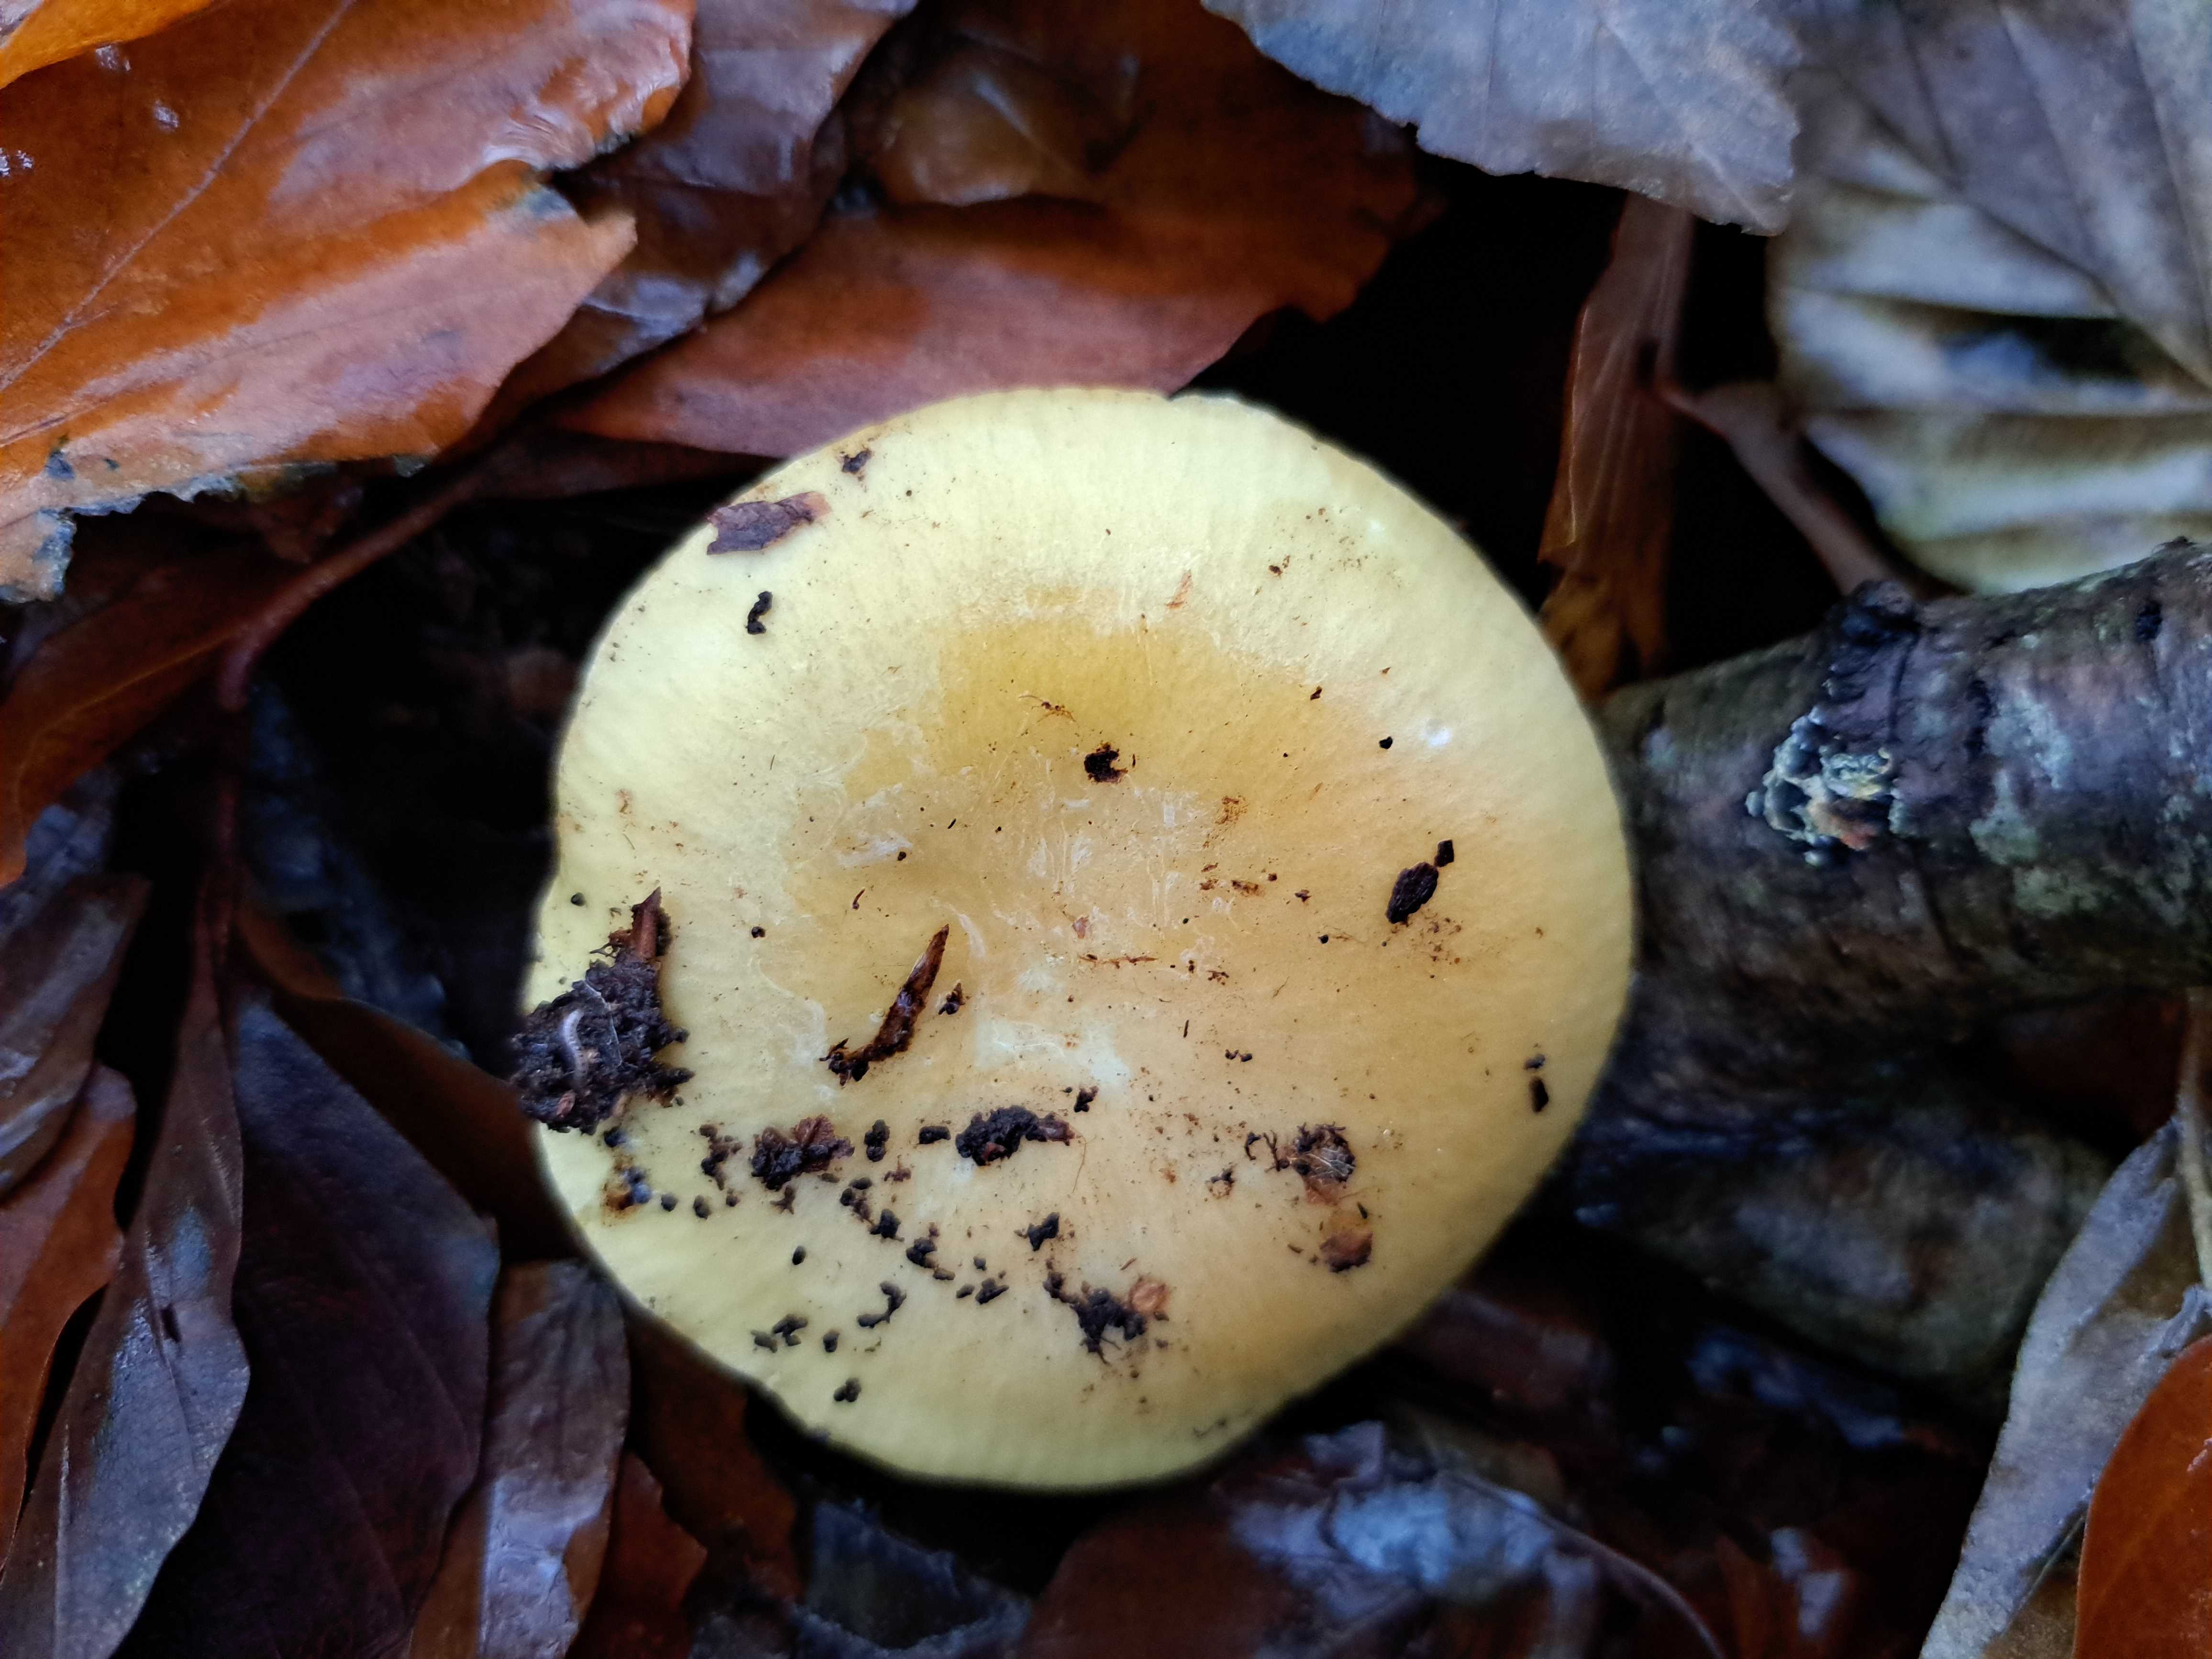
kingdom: Fungi
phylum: Basidiomycota
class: Agaricomycetes
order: Russulales
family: Russulaceae
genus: Russula
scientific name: Russula ochroleuca
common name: okkergul skørhat
